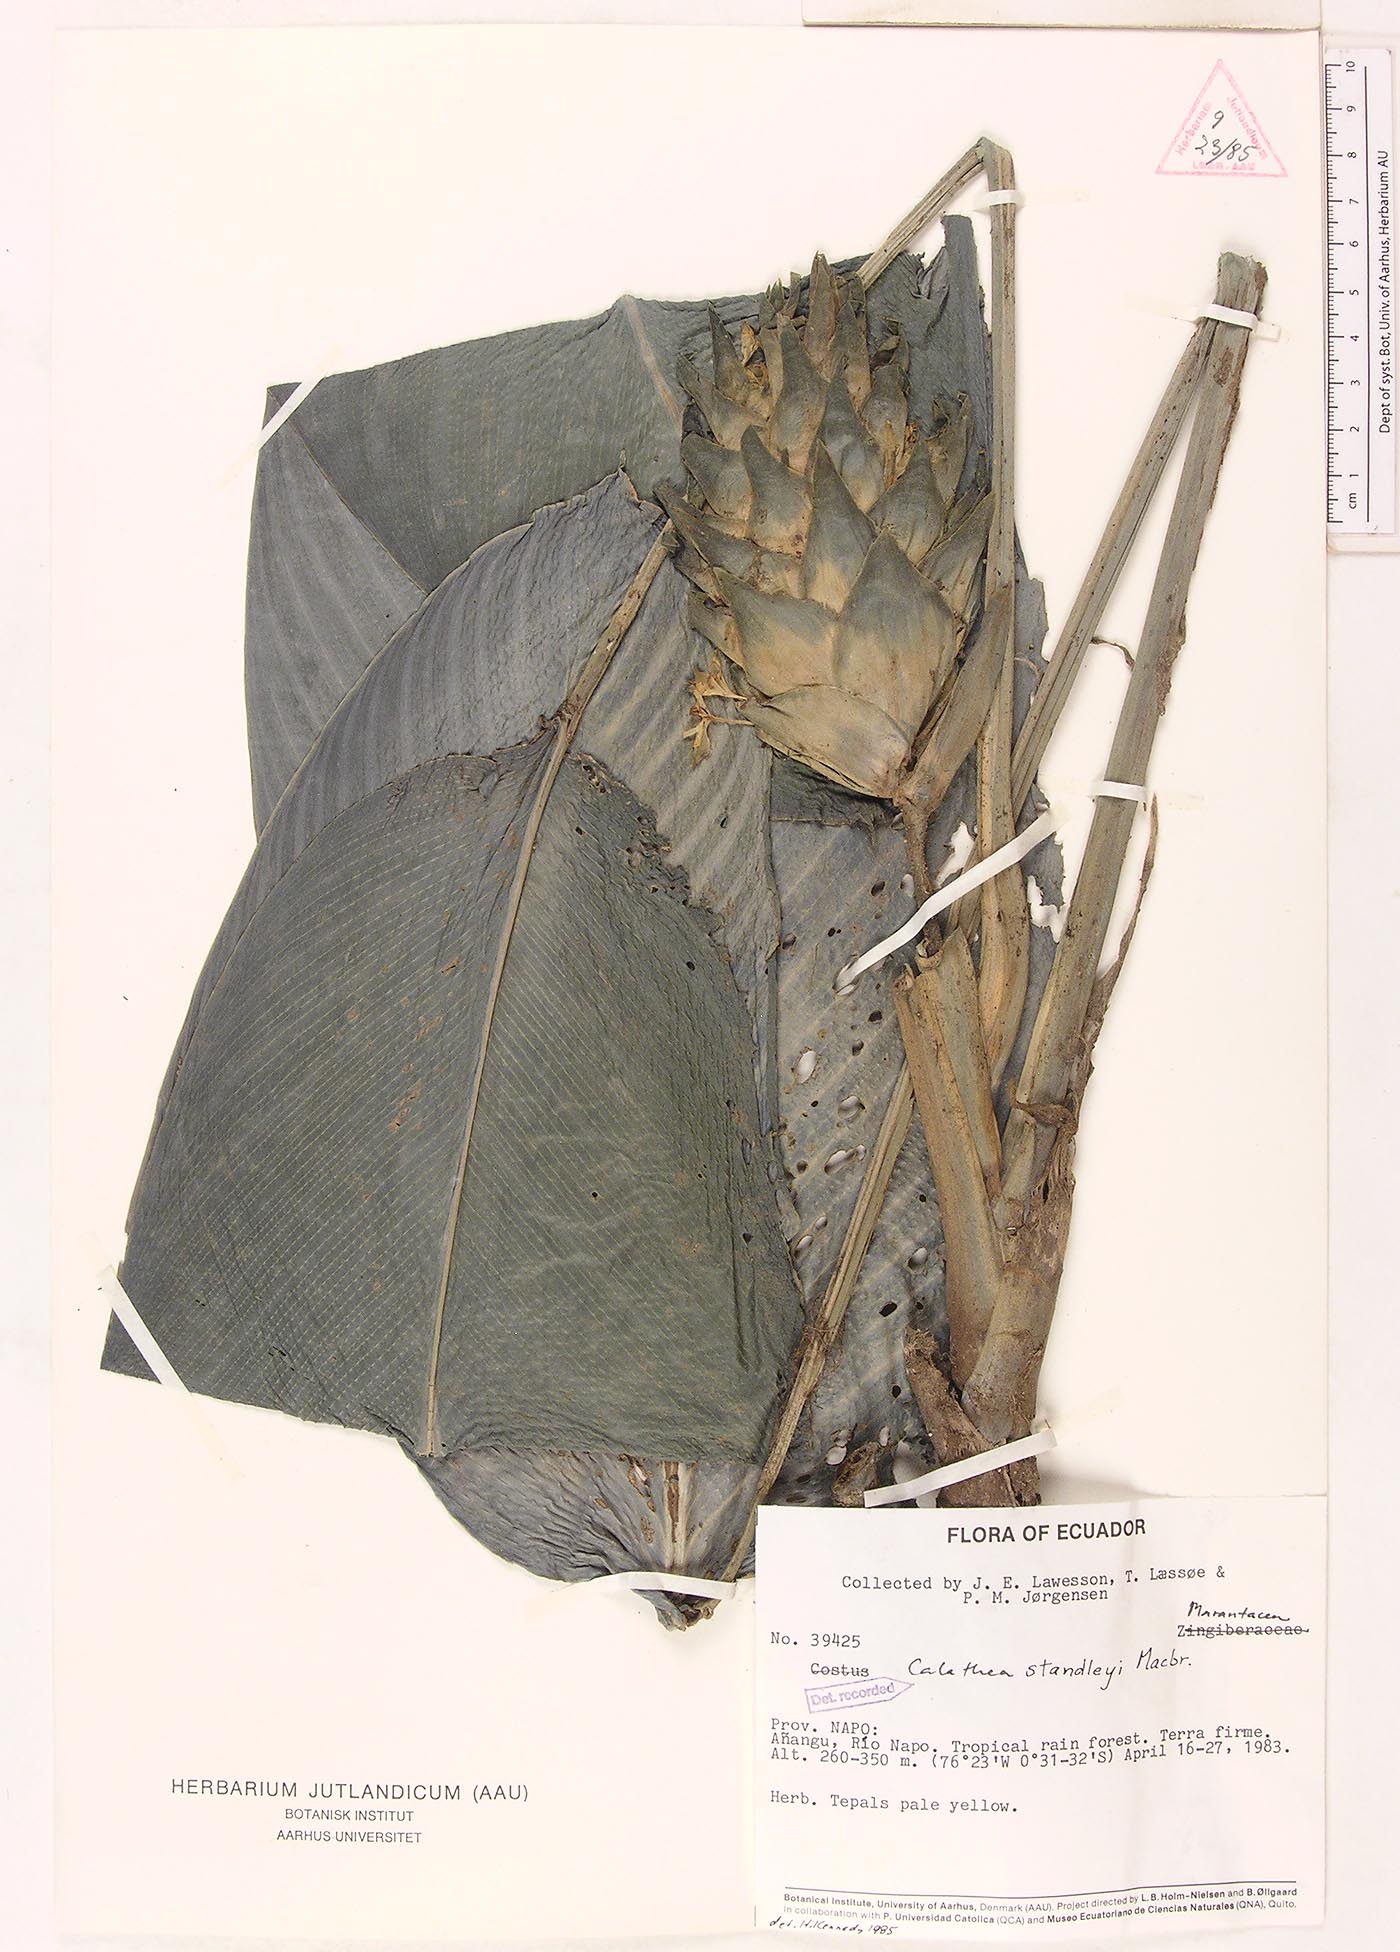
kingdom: Plantae
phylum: Tracheophyta
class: Liliopsida
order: Zingiberales
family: Marantaceae
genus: Goeppertia
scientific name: Goeppertia standleyi
